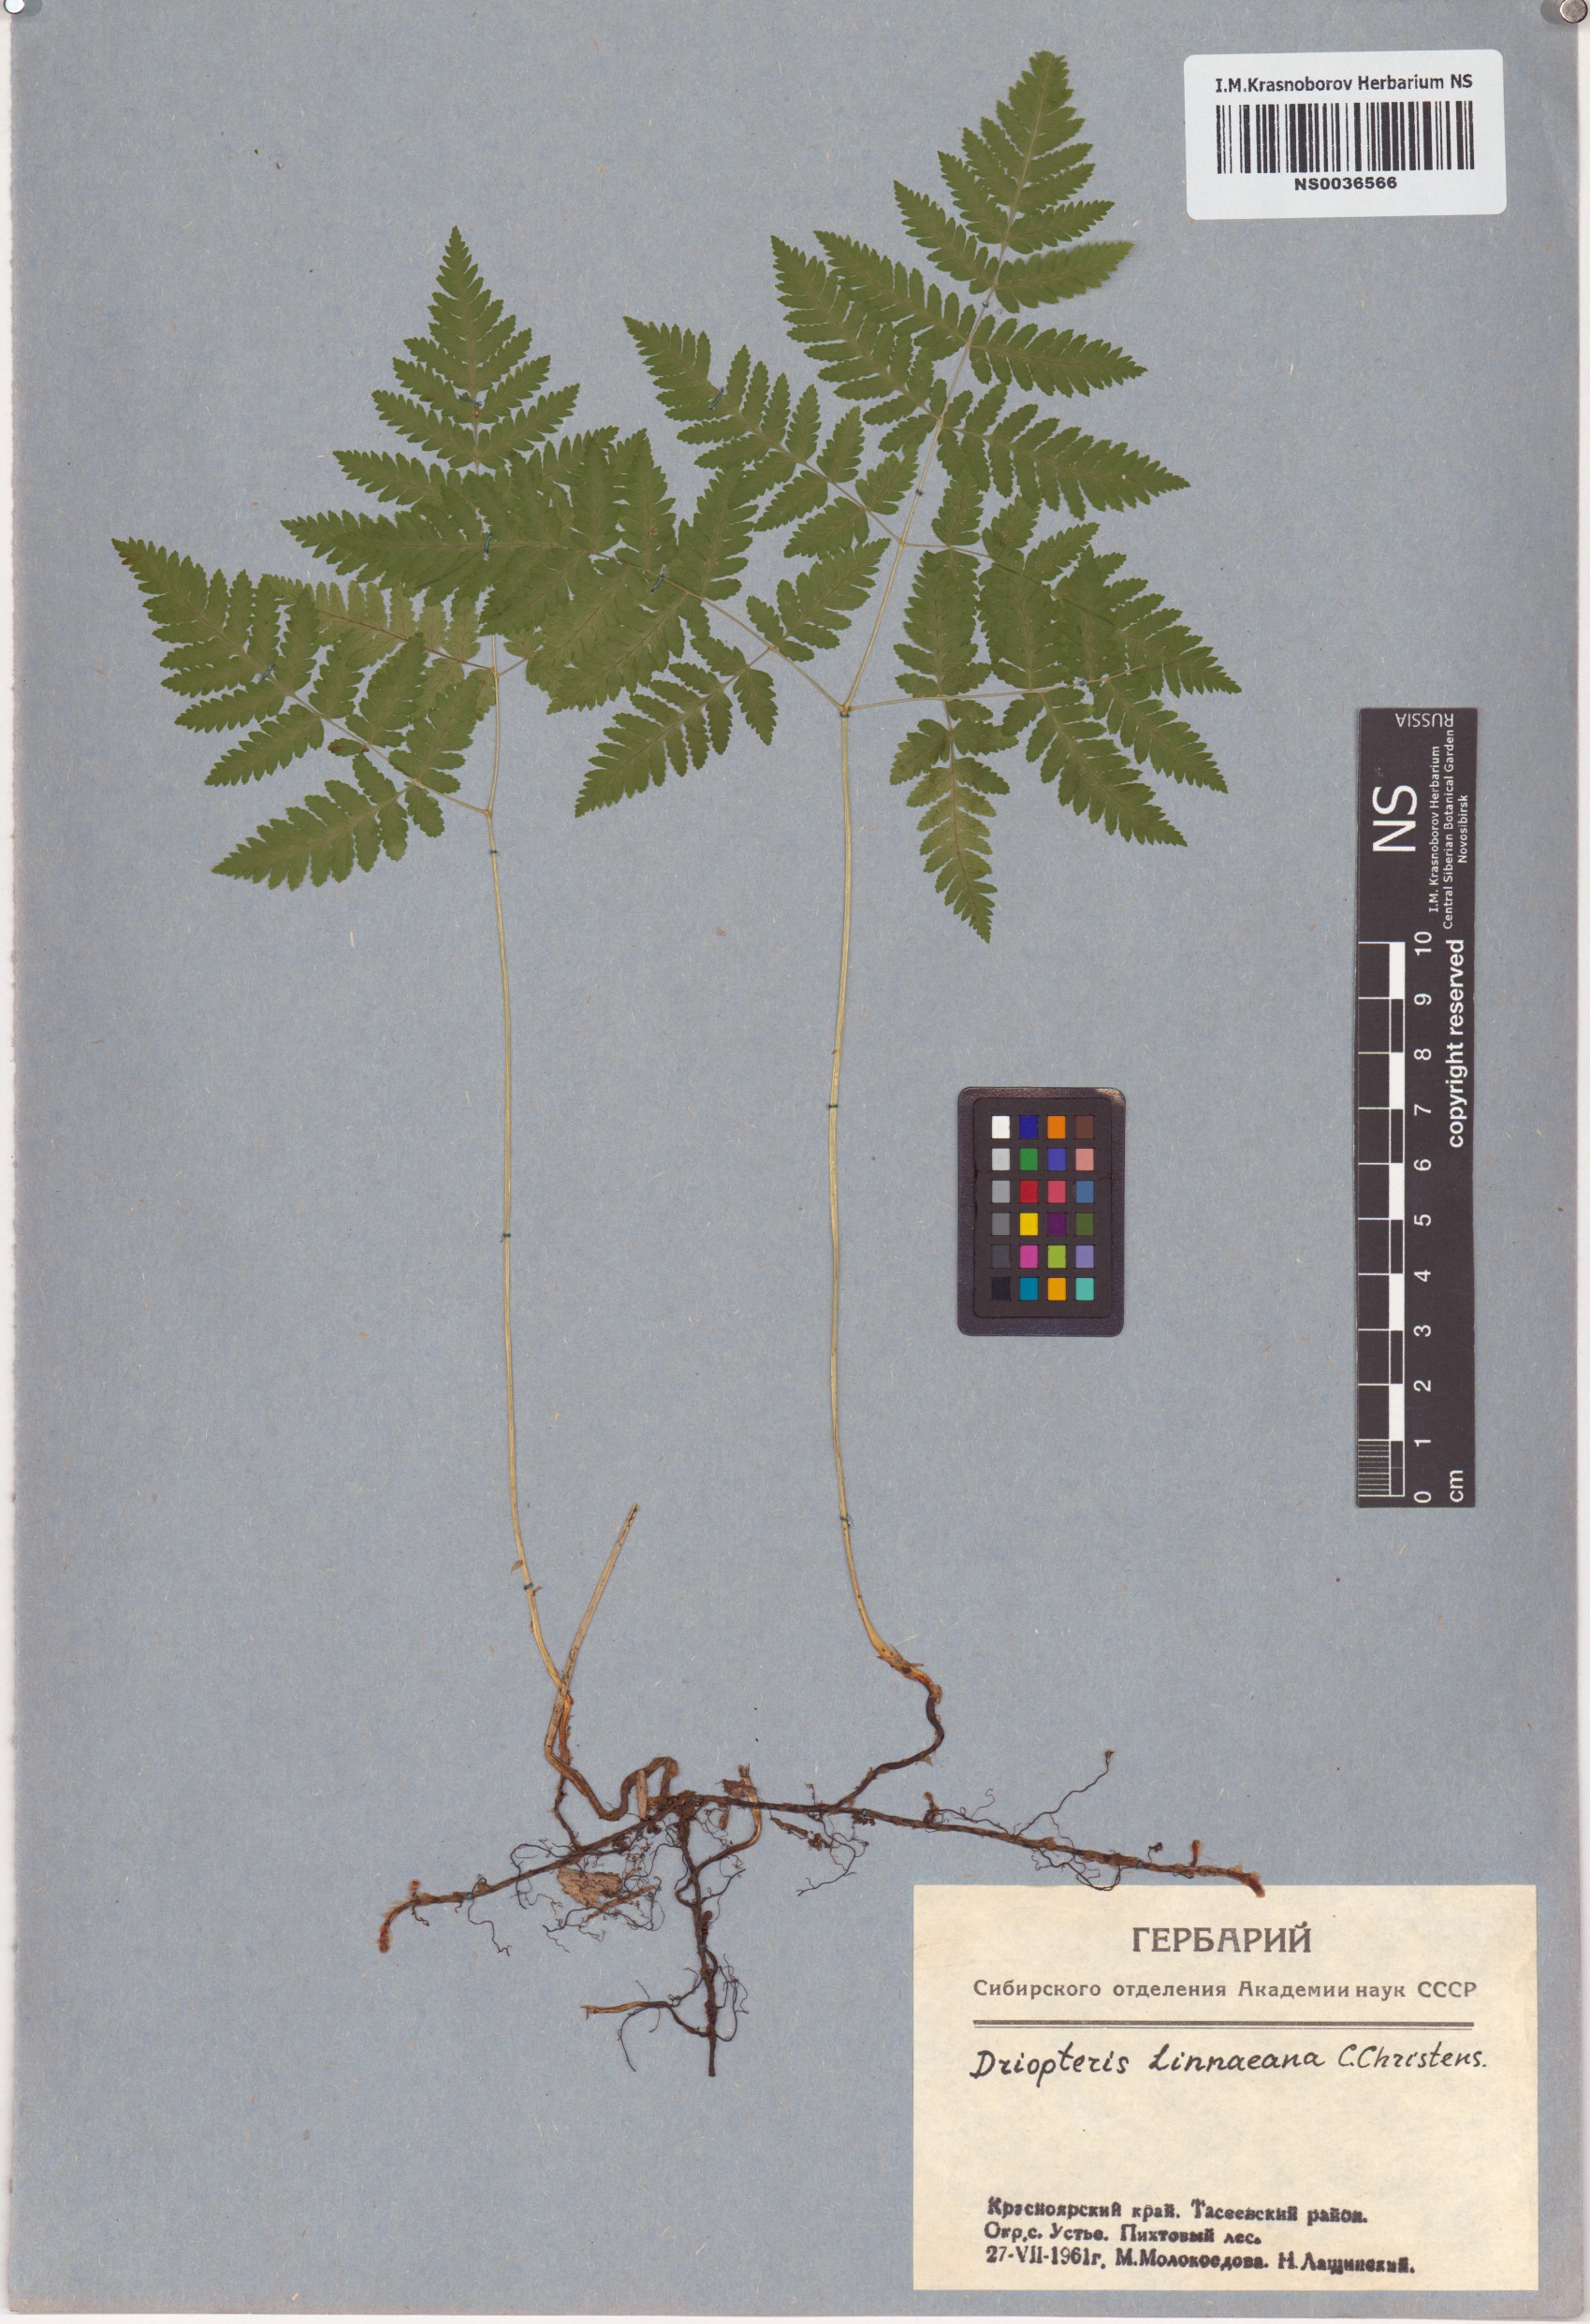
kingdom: Plantae
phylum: Tracheophyta
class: Polypodiopsida
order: Polypodiales
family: Cystopteridaceae
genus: Gymnocarpium
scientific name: Gymnocarpium dryopteris
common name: Oak fern
